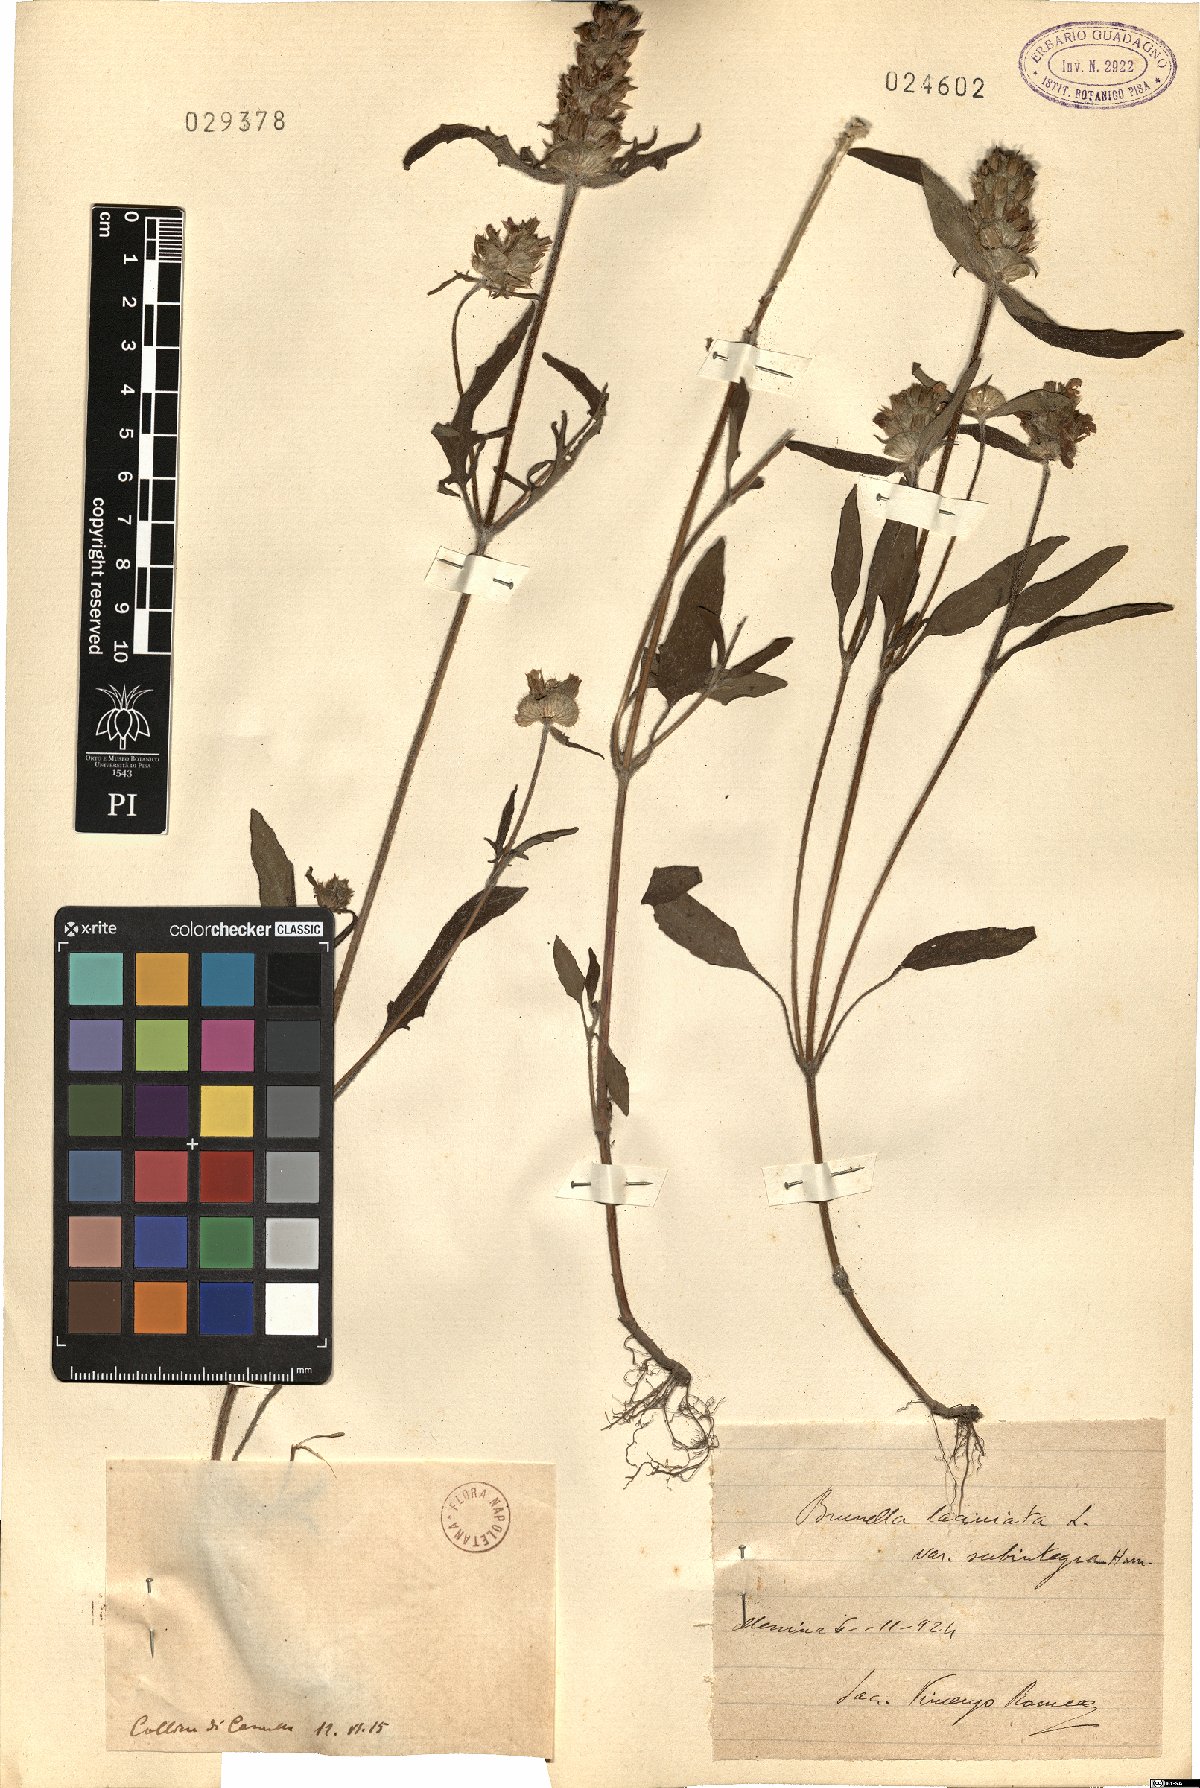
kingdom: Plantae
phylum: Tracheophyta
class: Magnoliopsida
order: Lamiales
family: Lamiaceae
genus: Prunella
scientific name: Prunella
